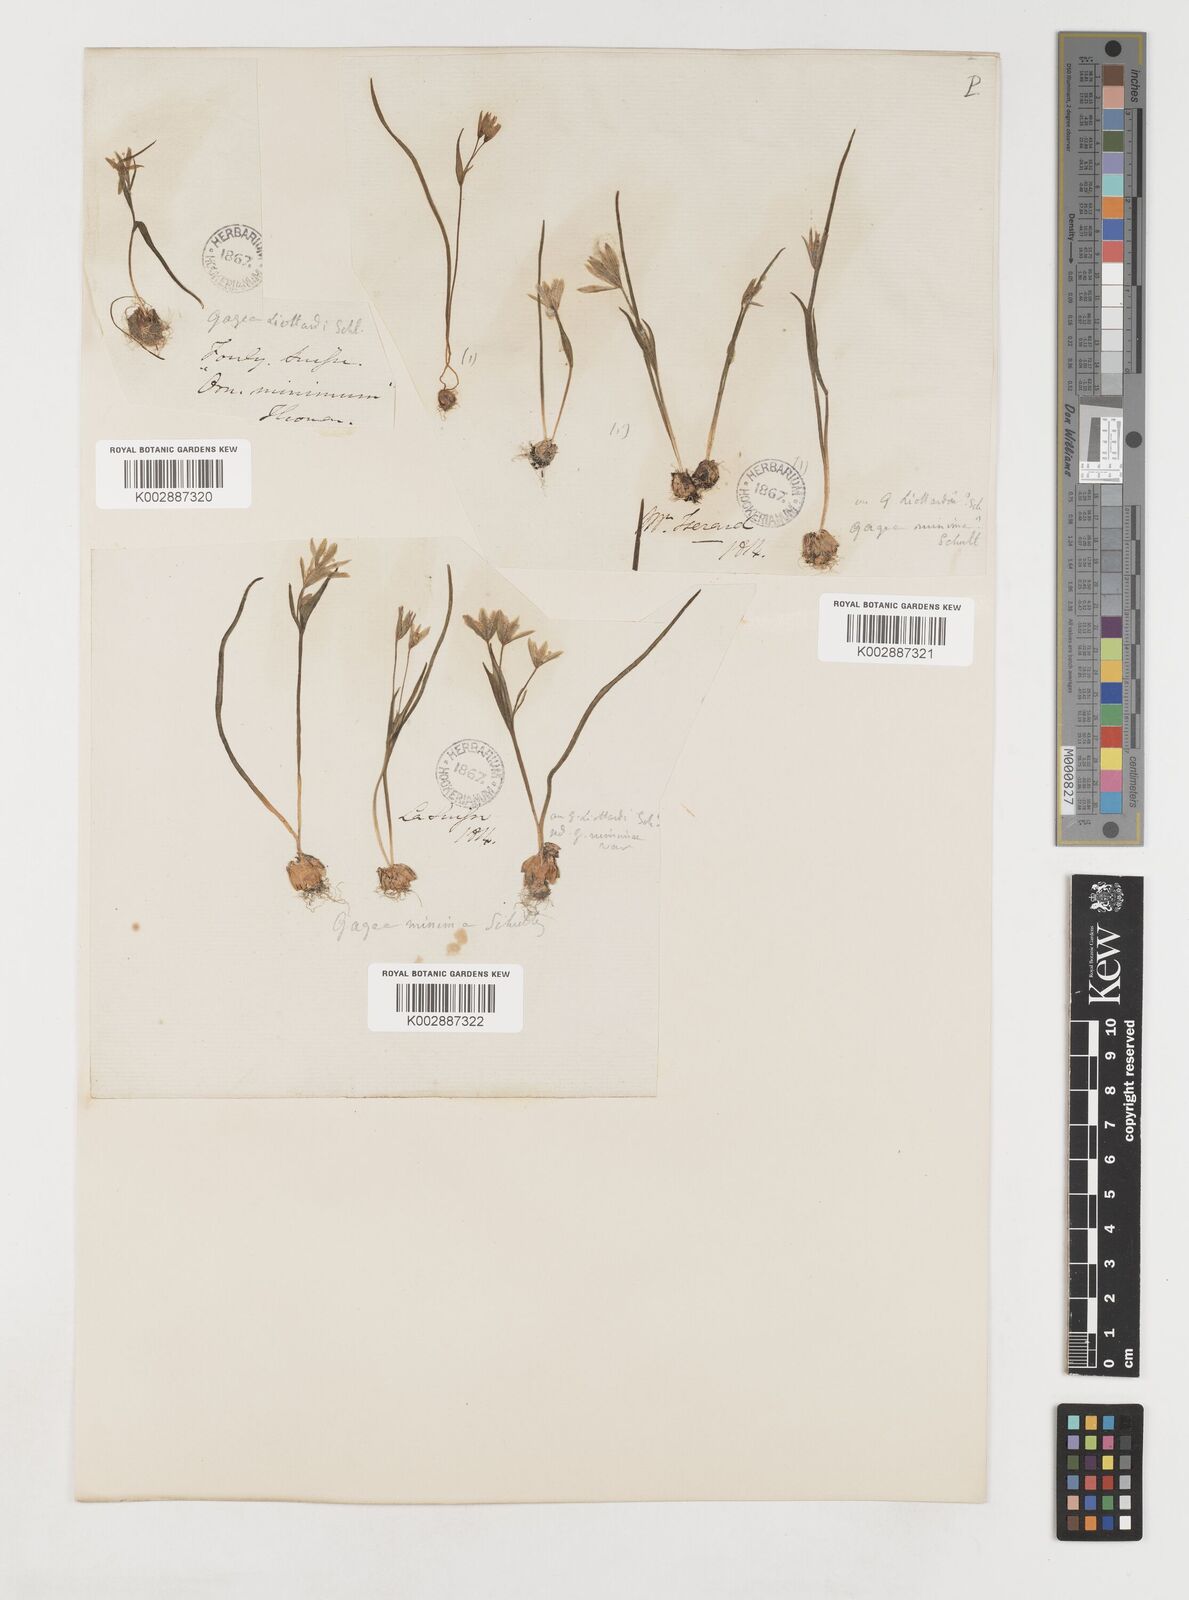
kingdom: Plantae
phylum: Tracheophyta
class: Liliopsida
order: Liliales
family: Liliaceae
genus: Gagea
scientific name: Gagea bohemica
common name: Early star-of-bethlehem
